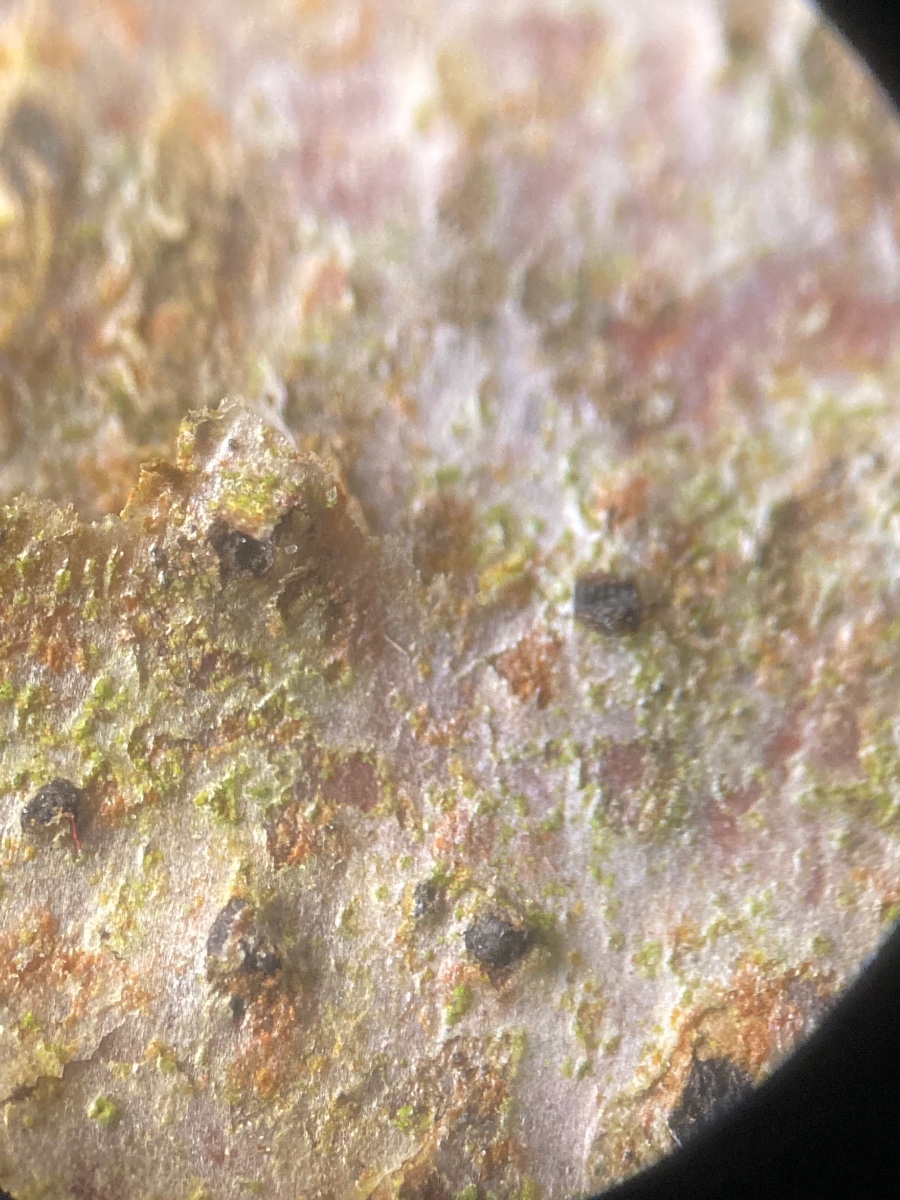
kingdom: Fungi
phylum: Ascomycota
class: Sordariomycetes
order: Diaporthales
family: Diaporthaceae
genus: Diaporthe
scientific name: Diaporthe decedens
